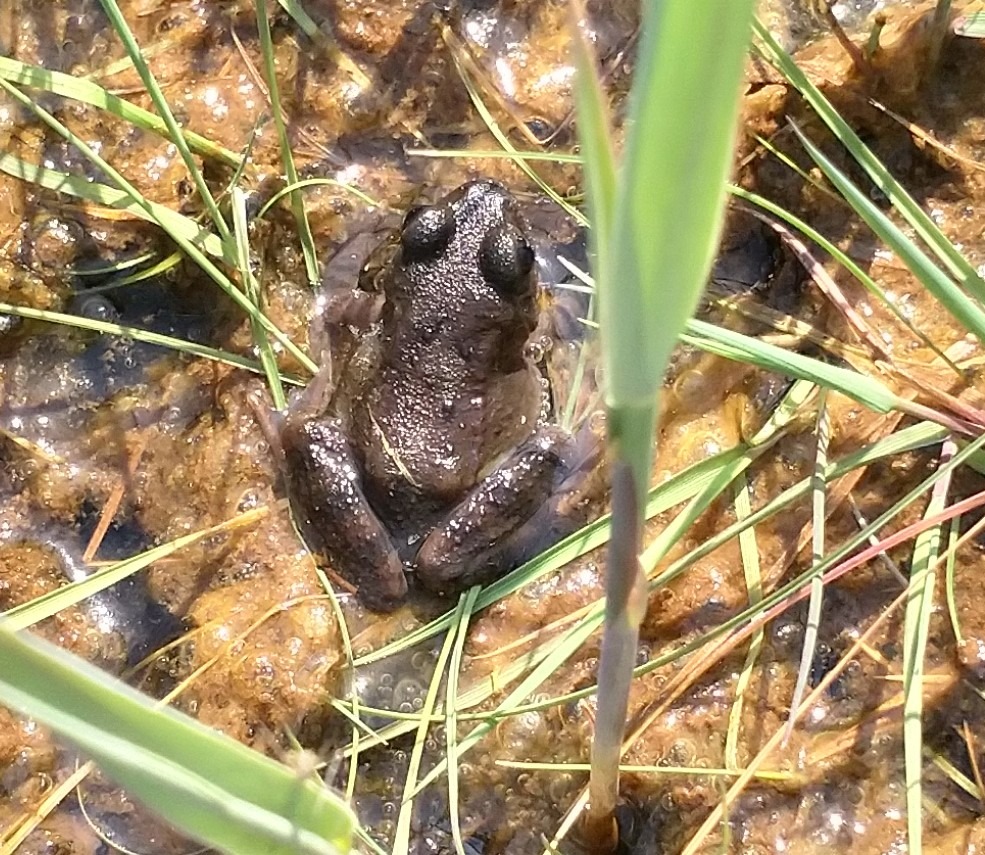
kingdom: Animalia
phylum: Chordata
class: Amphibia
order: Anura
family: Ranidae
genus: Rana
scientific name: Rana temporaria
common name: Butsnudet frø
